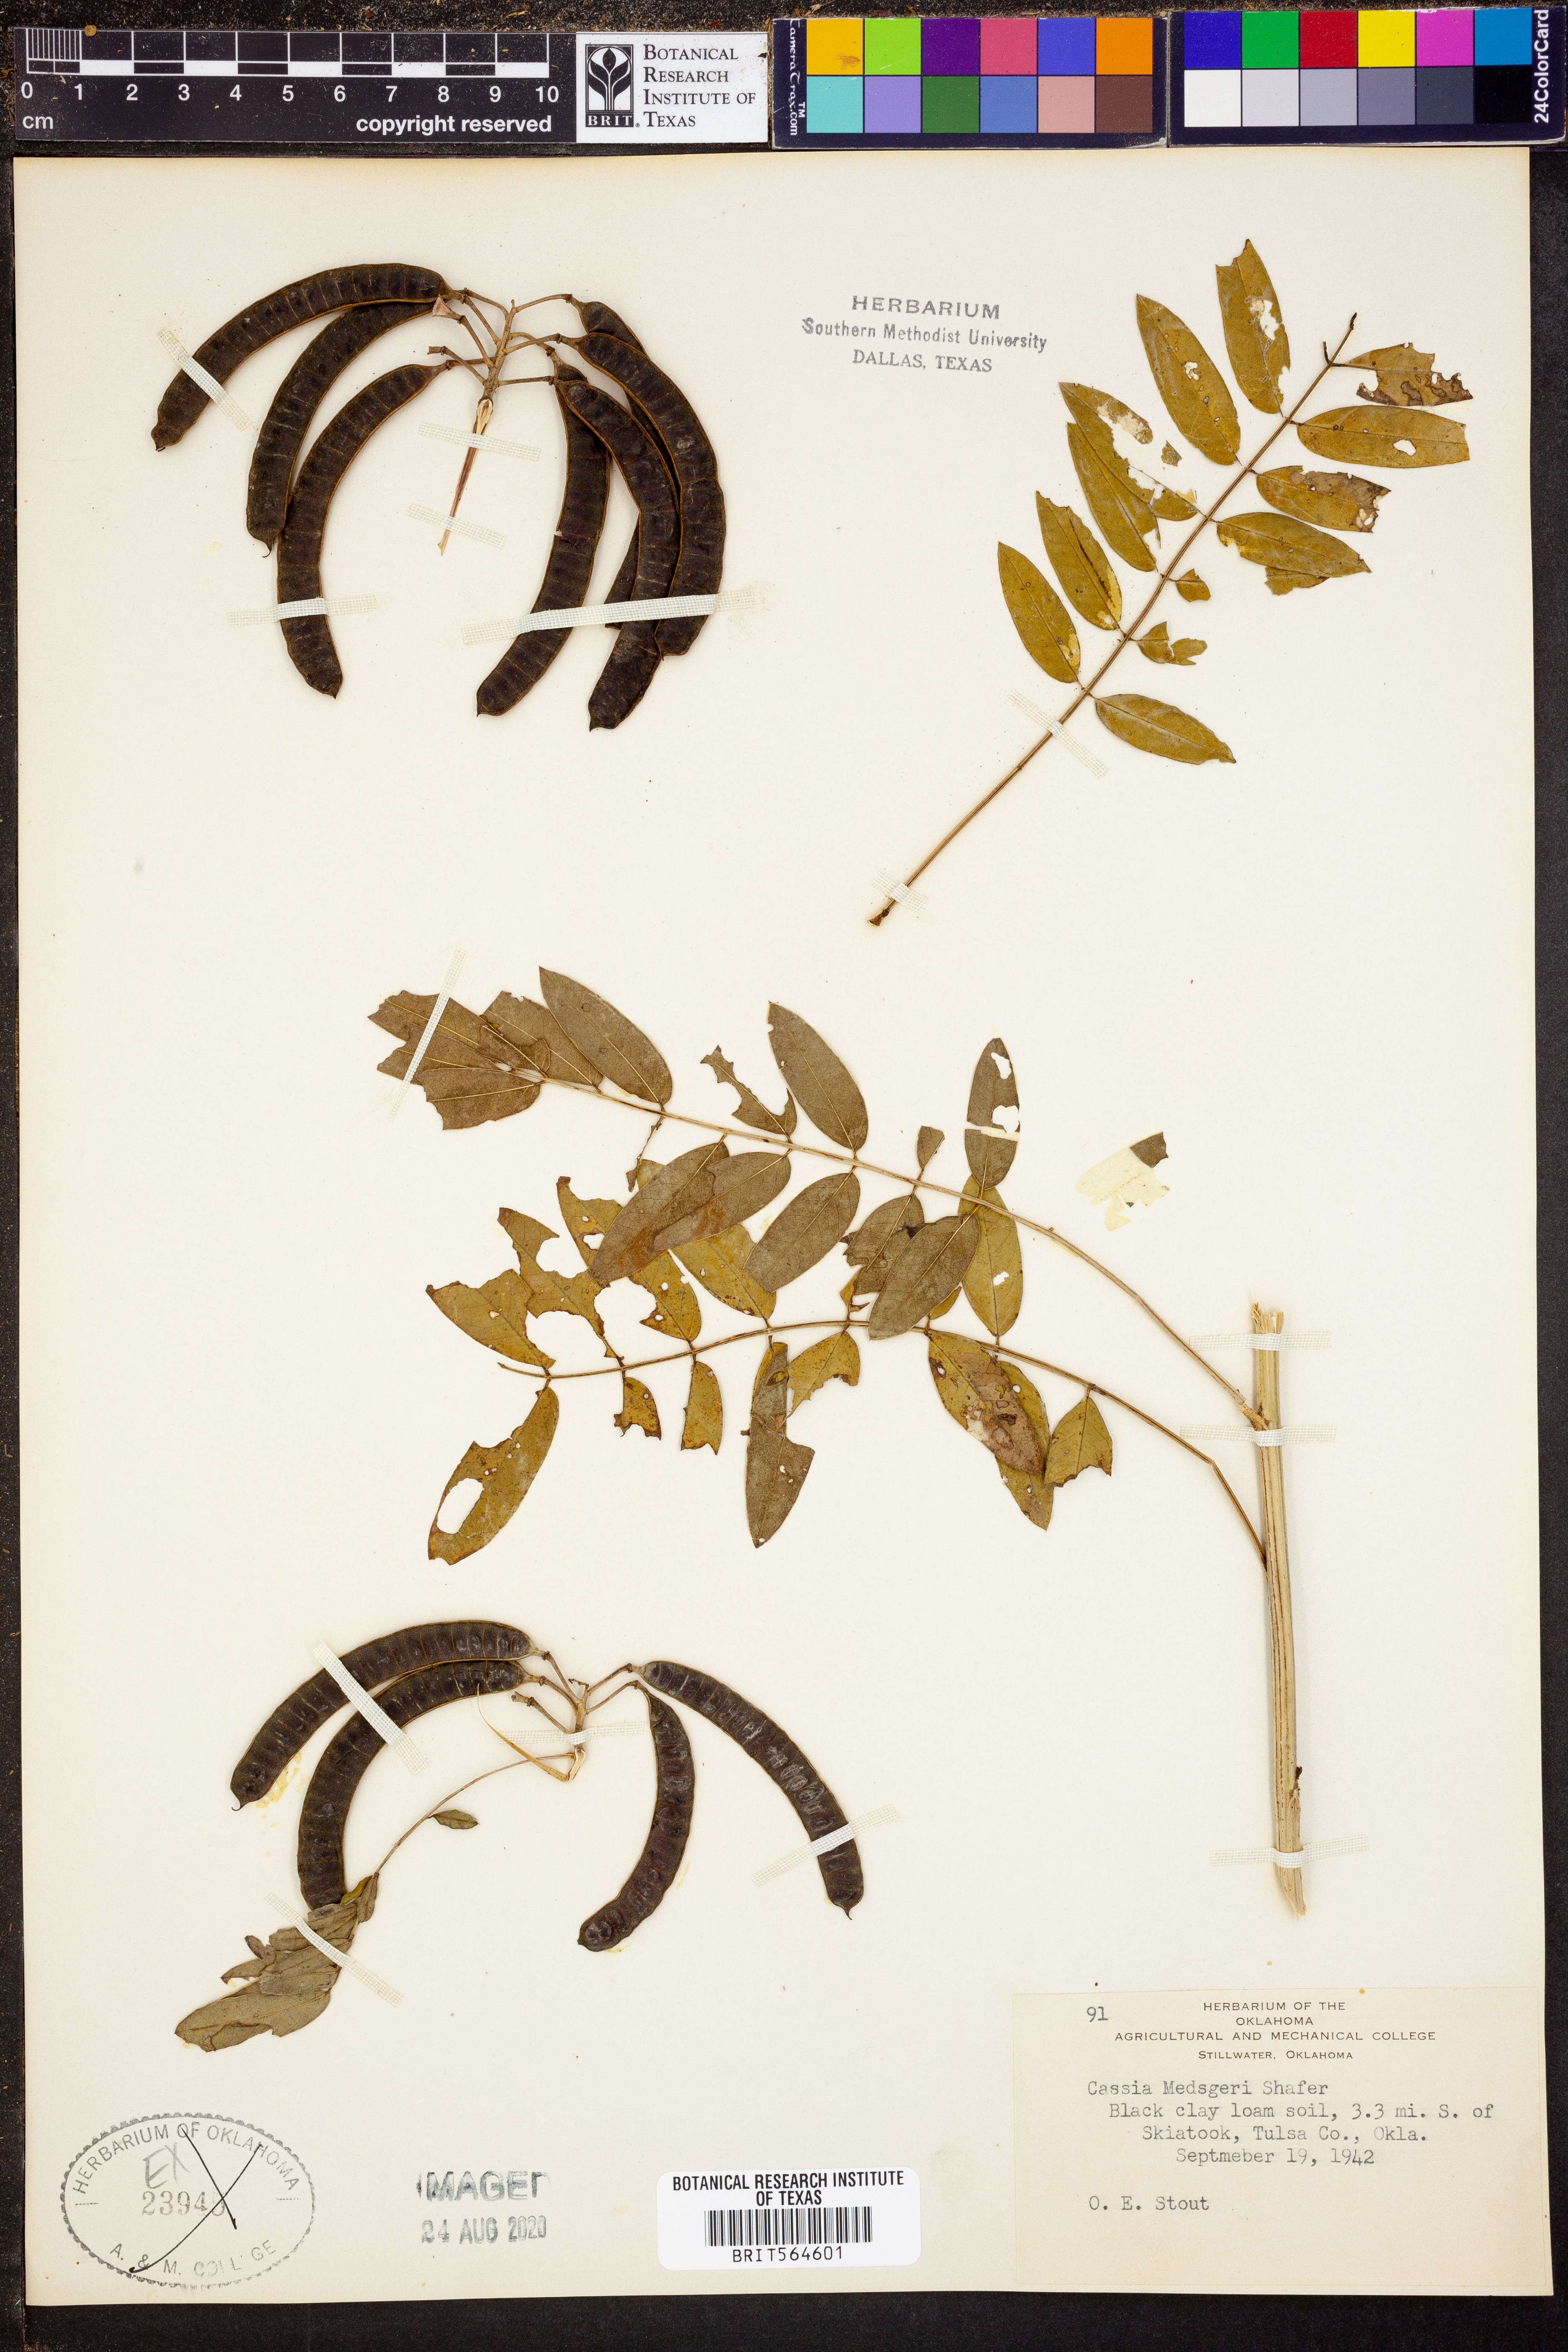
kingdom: Plantae
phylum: Tracheophyta
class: Magnoliopsida
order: Fabales
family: Fabaceae
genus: Senna
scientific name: Senna marilandica
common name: American senna
